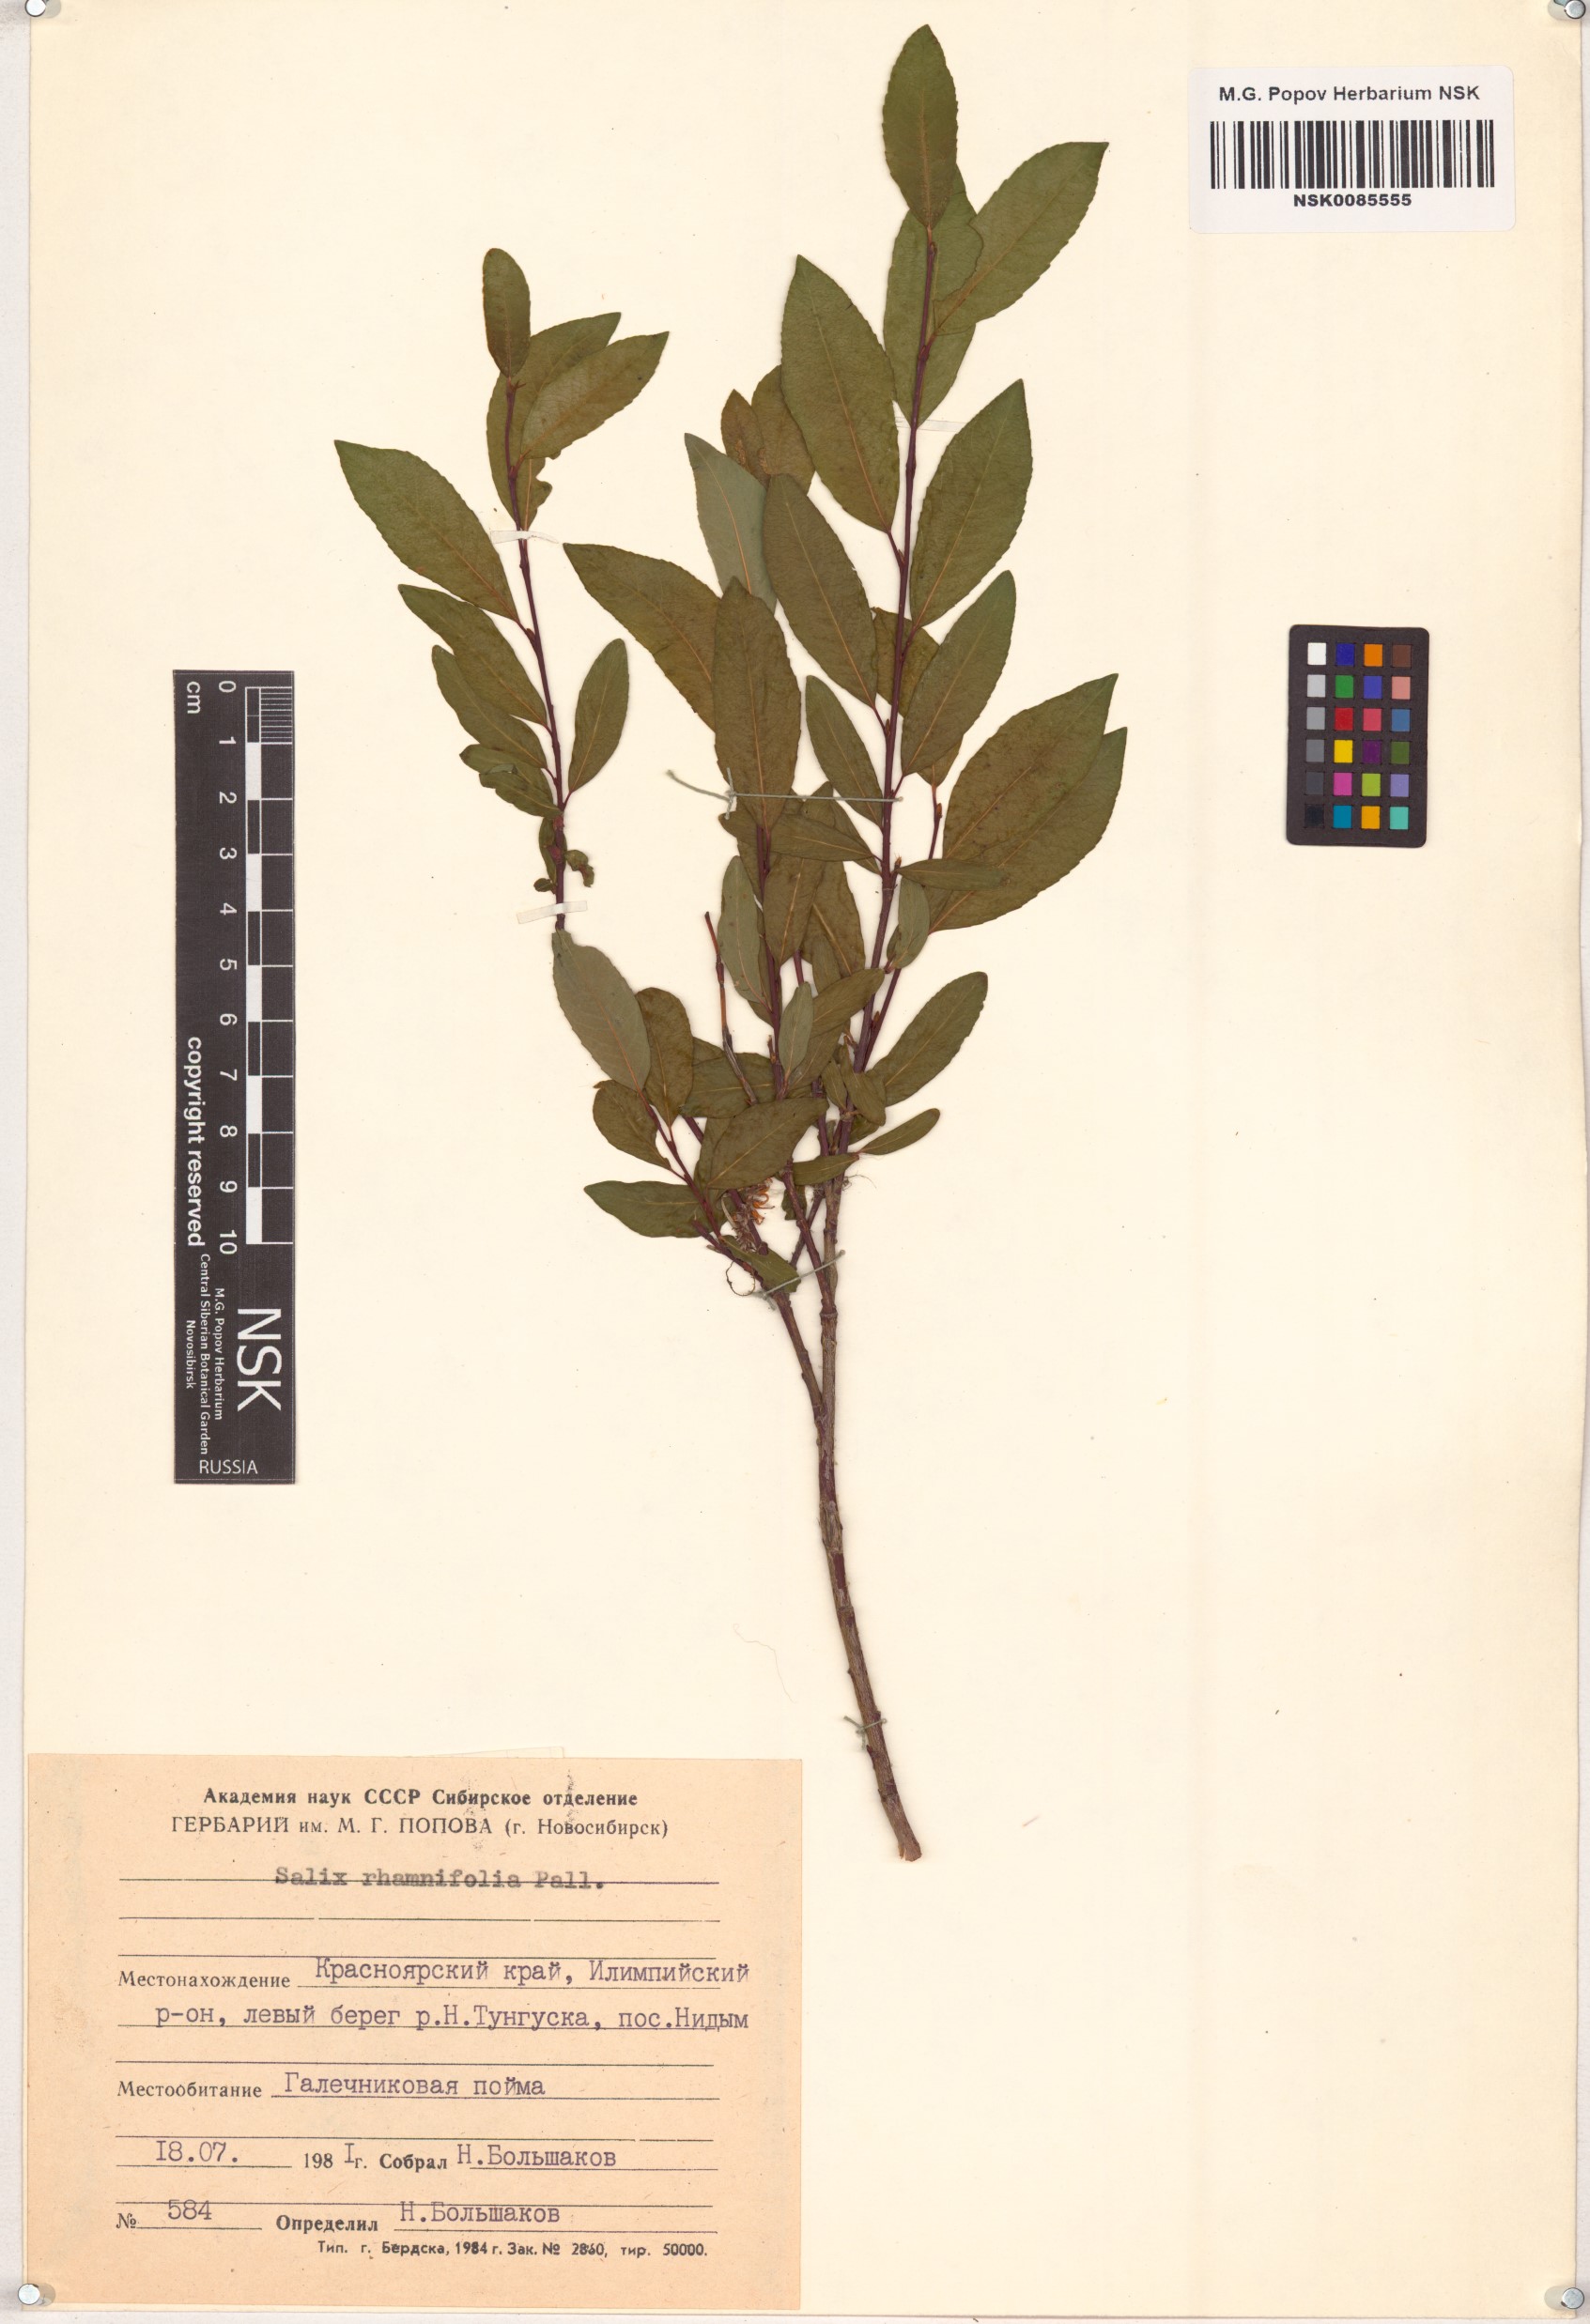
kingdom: Plantae
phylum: Tracheophyta
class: Magnoliopsida
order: Malpighiales
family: Salicaceae
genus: Salix
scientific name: Salix rhamnifolia
